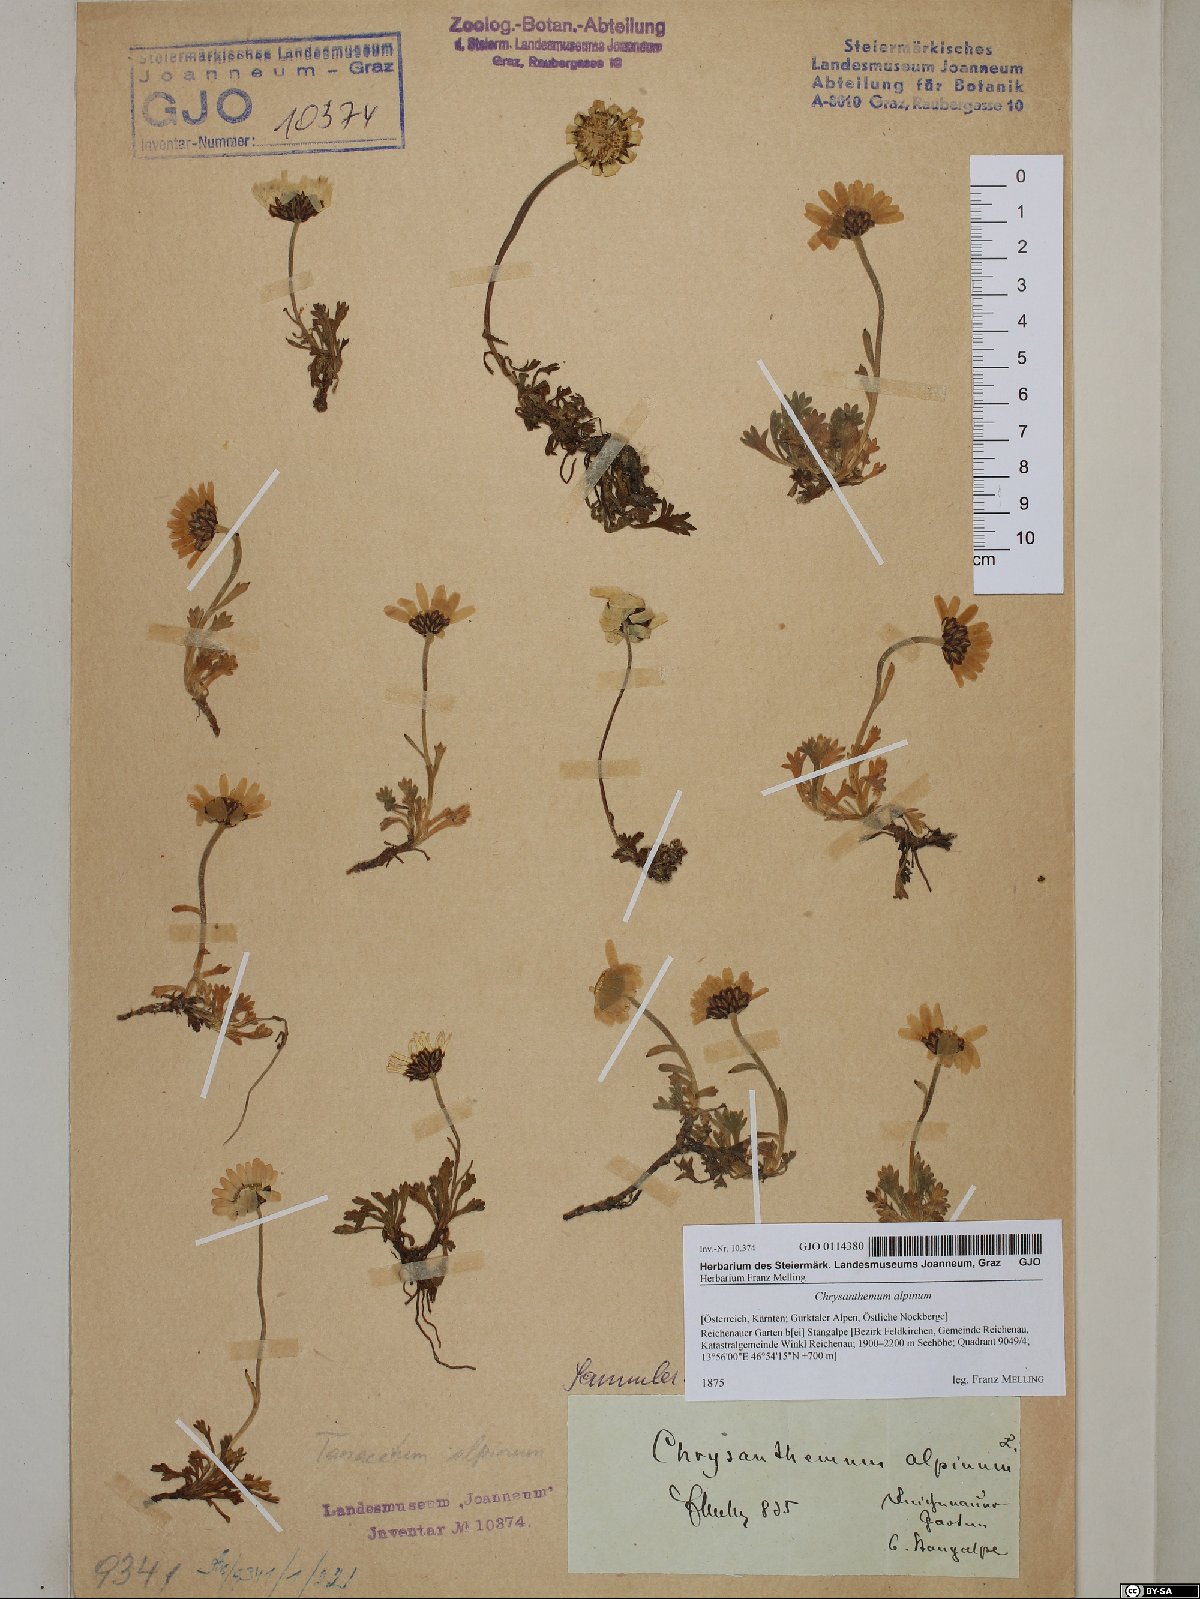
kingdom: Plantae
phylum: Tracheophyta
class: Magnoliopsida
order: Asterales
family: Asteraceae
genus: Leucanthemopsis
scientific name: Leucanthemopsis alpina
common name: Alpine moon daisy
